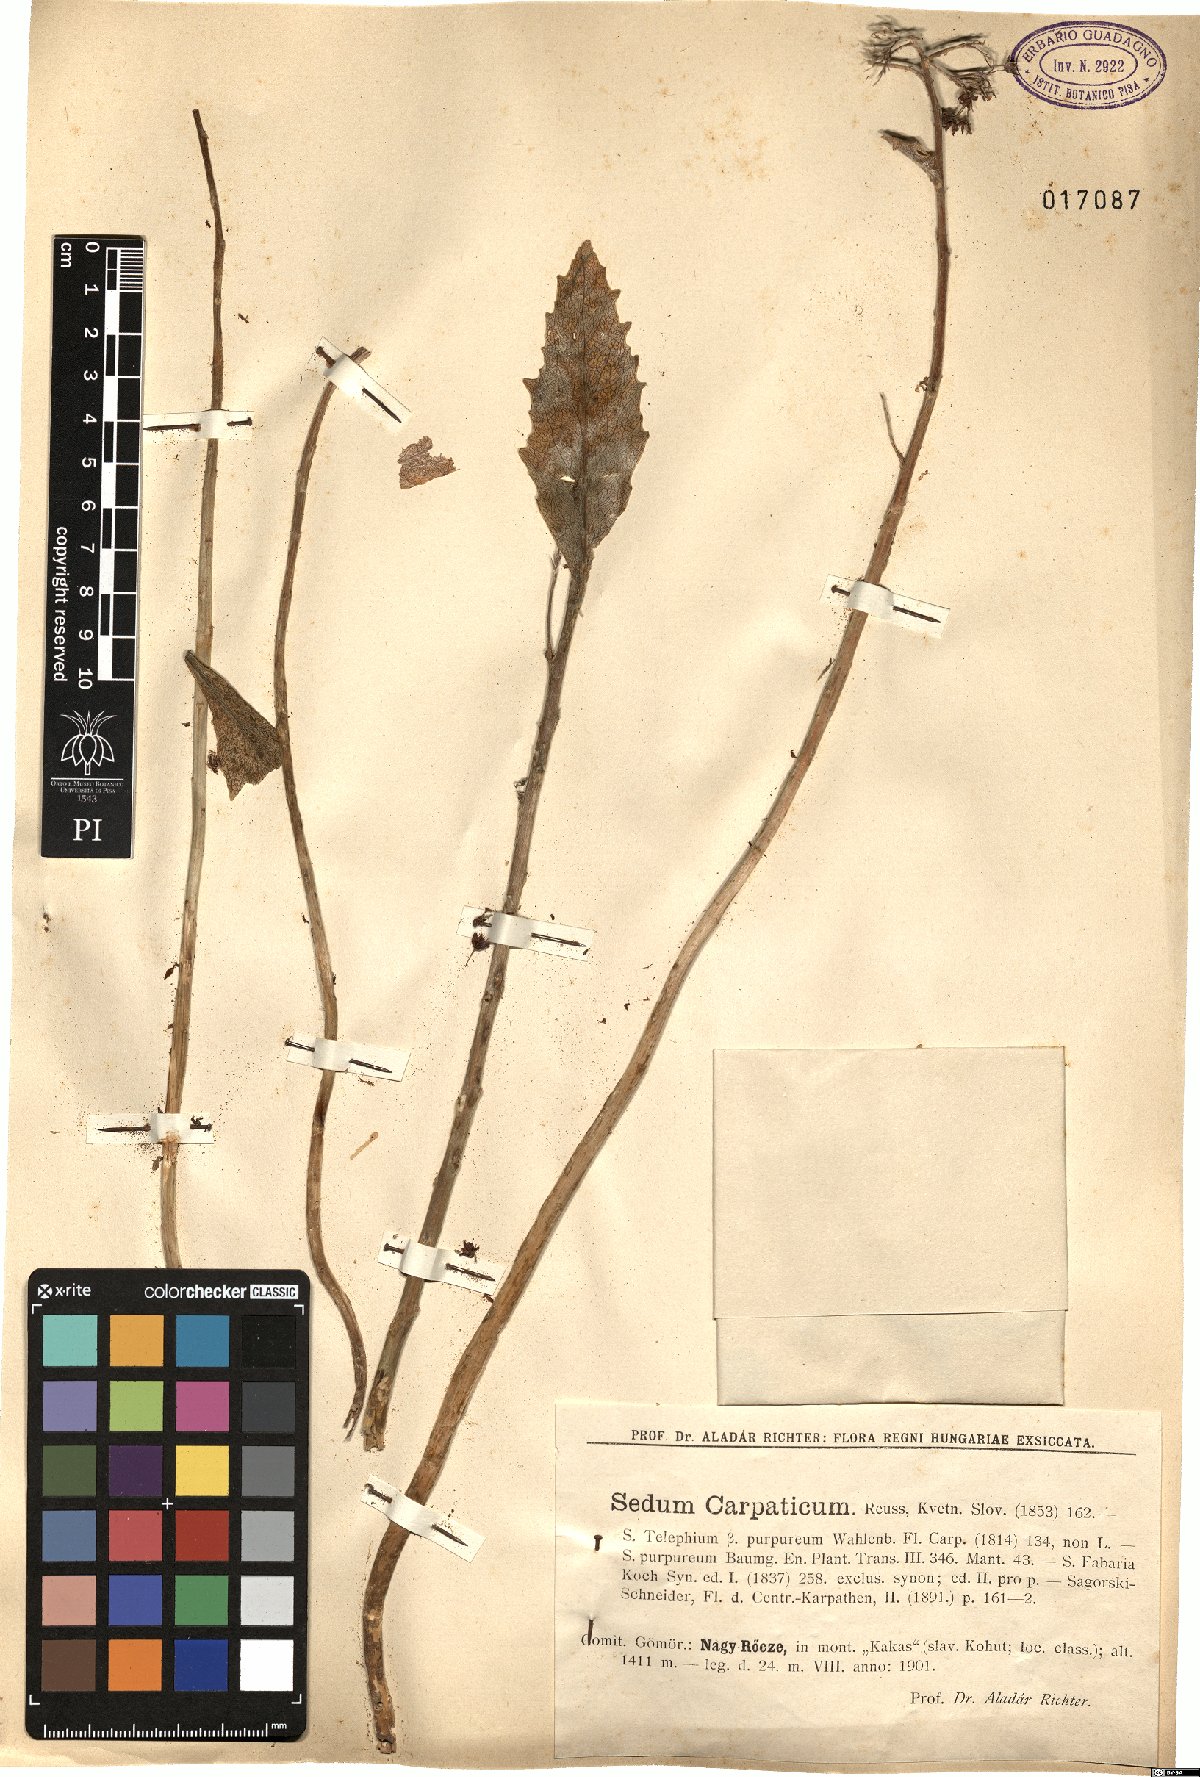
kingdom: Plantae
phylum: Tracheophyta
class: Magnoliopsida
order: Saxifragales
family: Crassulaceae
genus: Hylotelephium
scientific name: Hylotelephium telephium
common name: Live-forever
